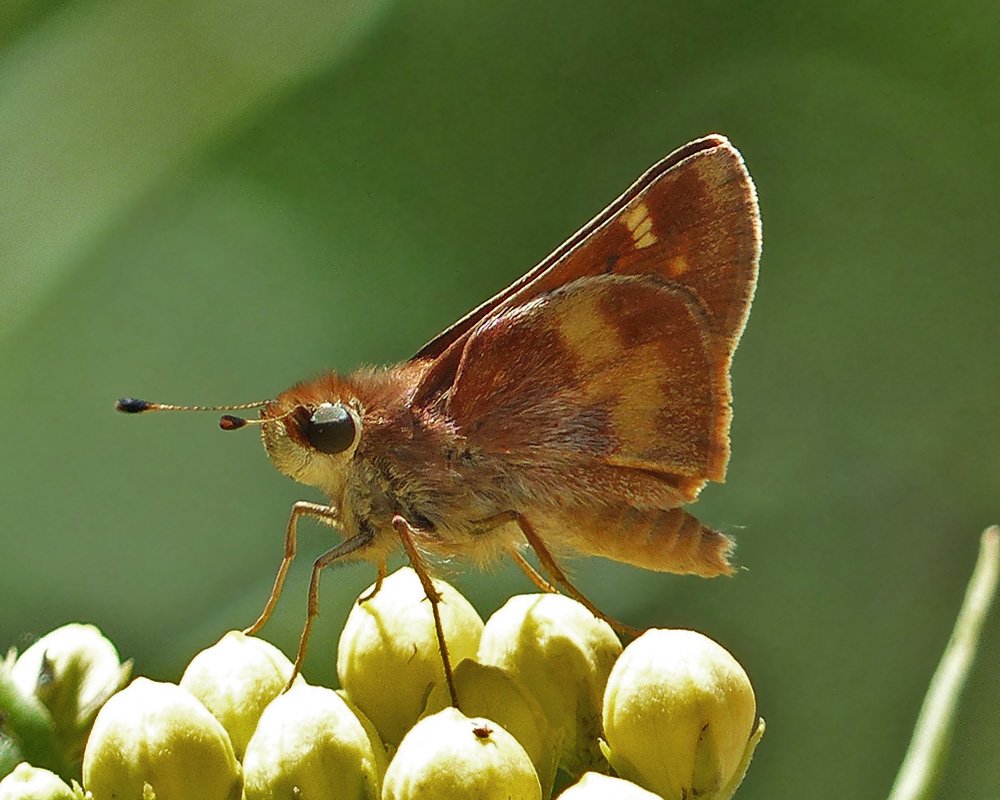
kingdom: Animalia
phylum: Arthropoda
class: Insecta
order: Lepidoptera
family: Hesperiidae
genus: Lon
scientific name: Lon melane
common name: Umber Skipper
